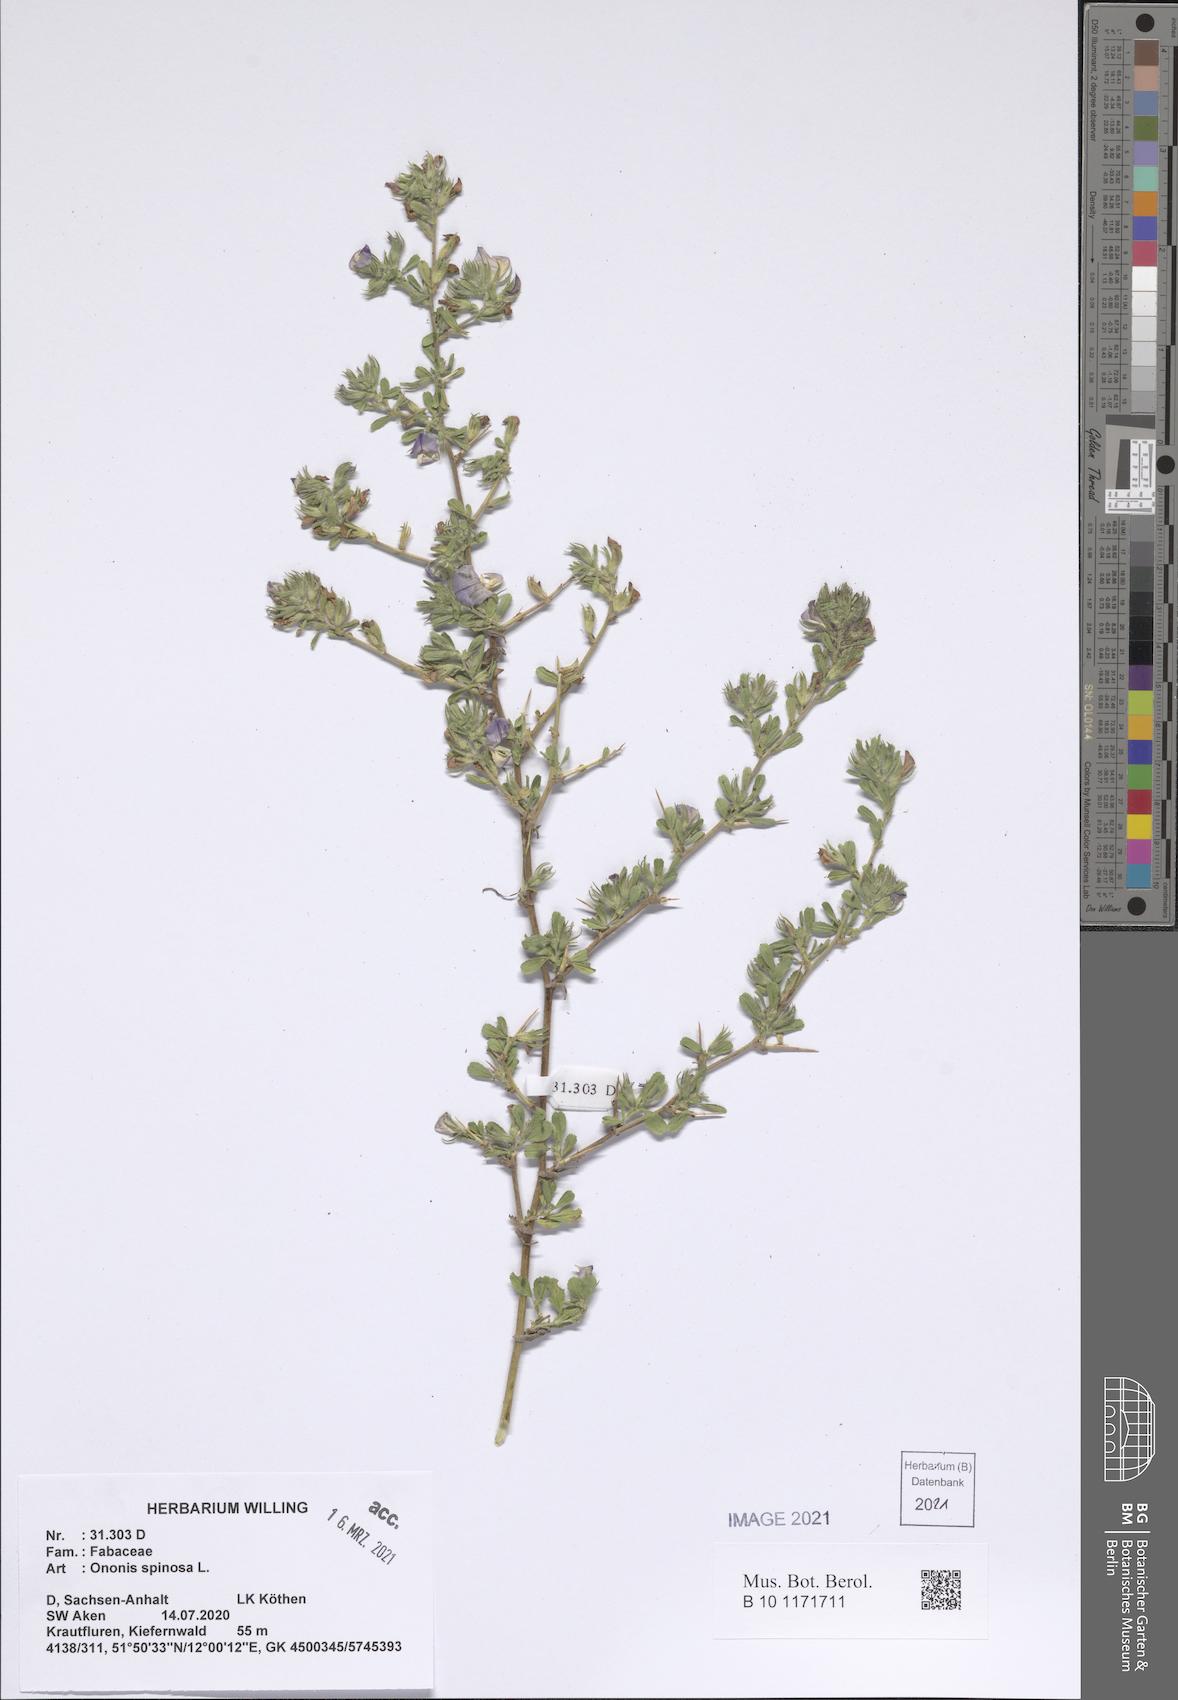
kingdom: Plantae
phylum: Tracheophyta
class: Magnoliopsida
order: Fabales
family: Fabaceae
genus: Ononis
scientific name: Ononis spinosa
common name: Spiny restharrow
